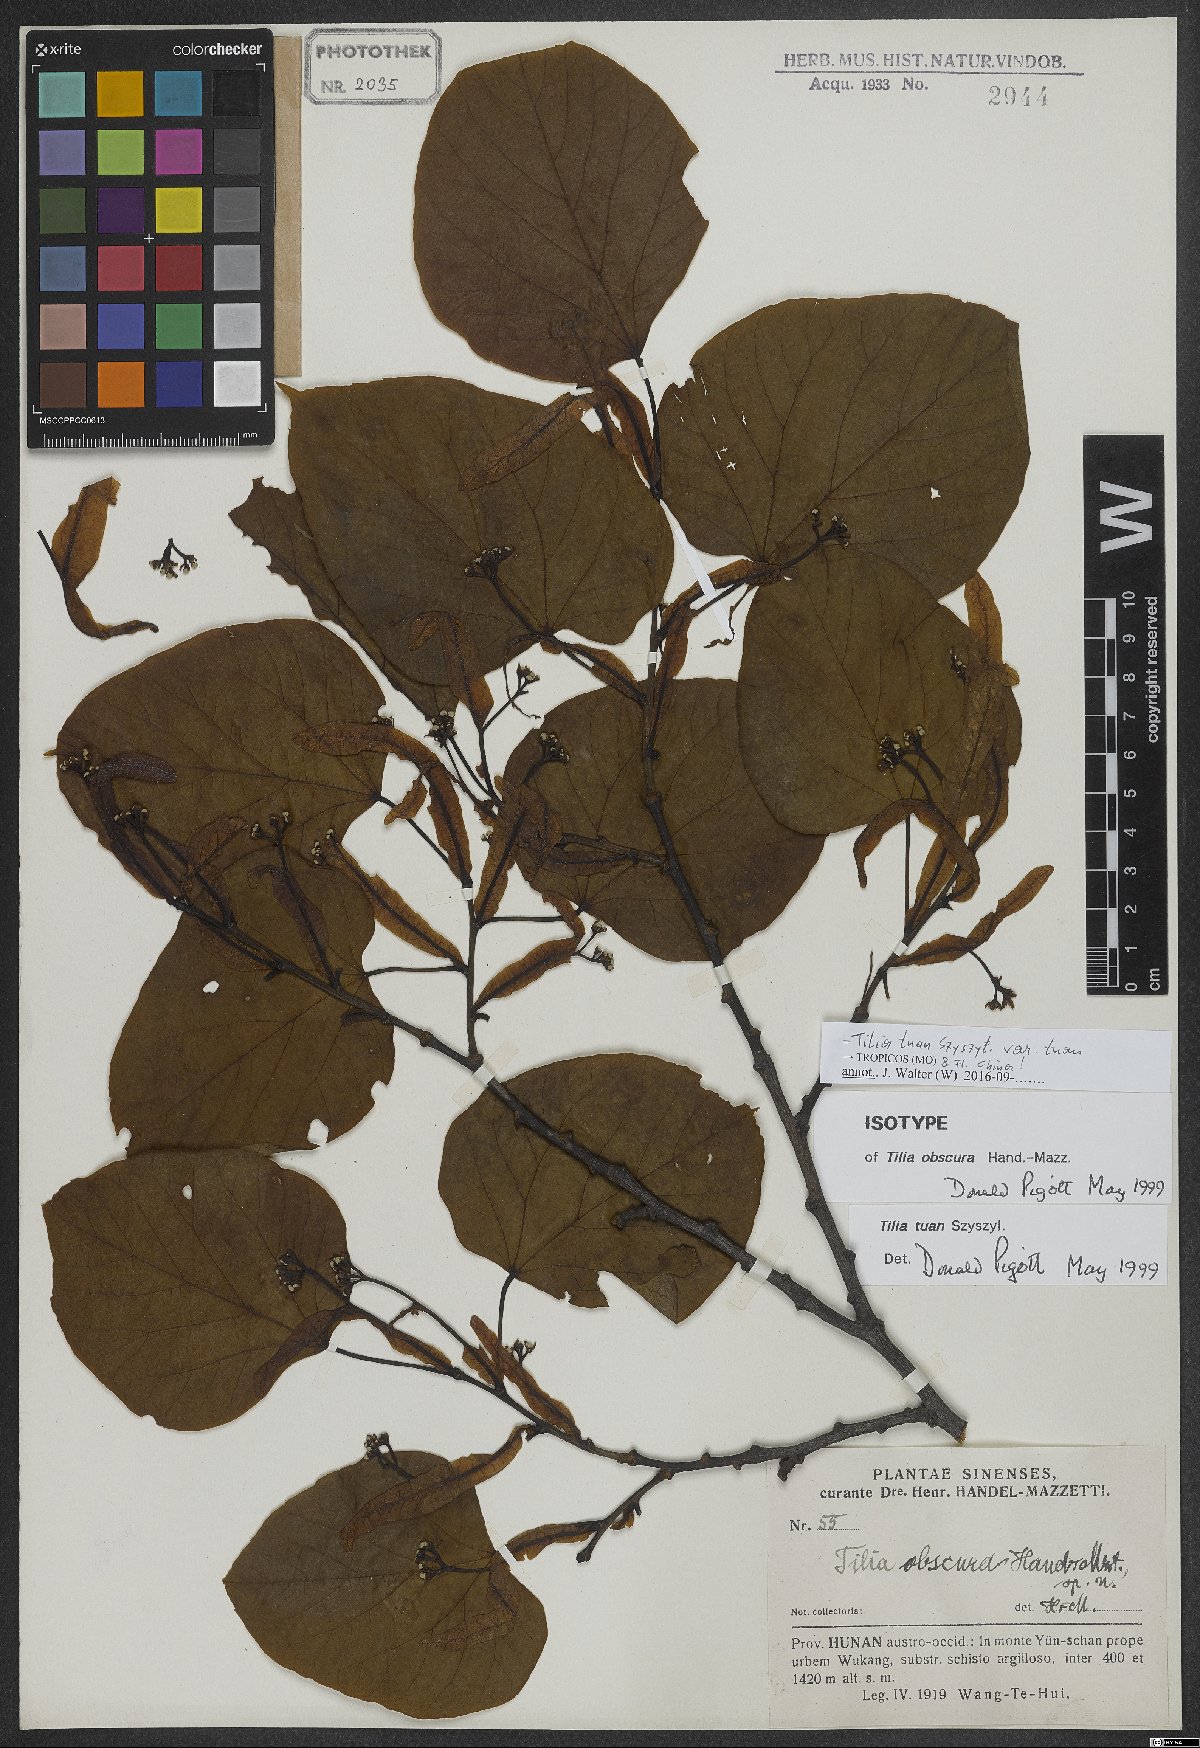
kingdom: Plantae
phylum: Tracheophyta
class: Magnoliopsida
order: Malvales
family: Malvaceae
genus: Tilia
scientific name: Tilia tuan
